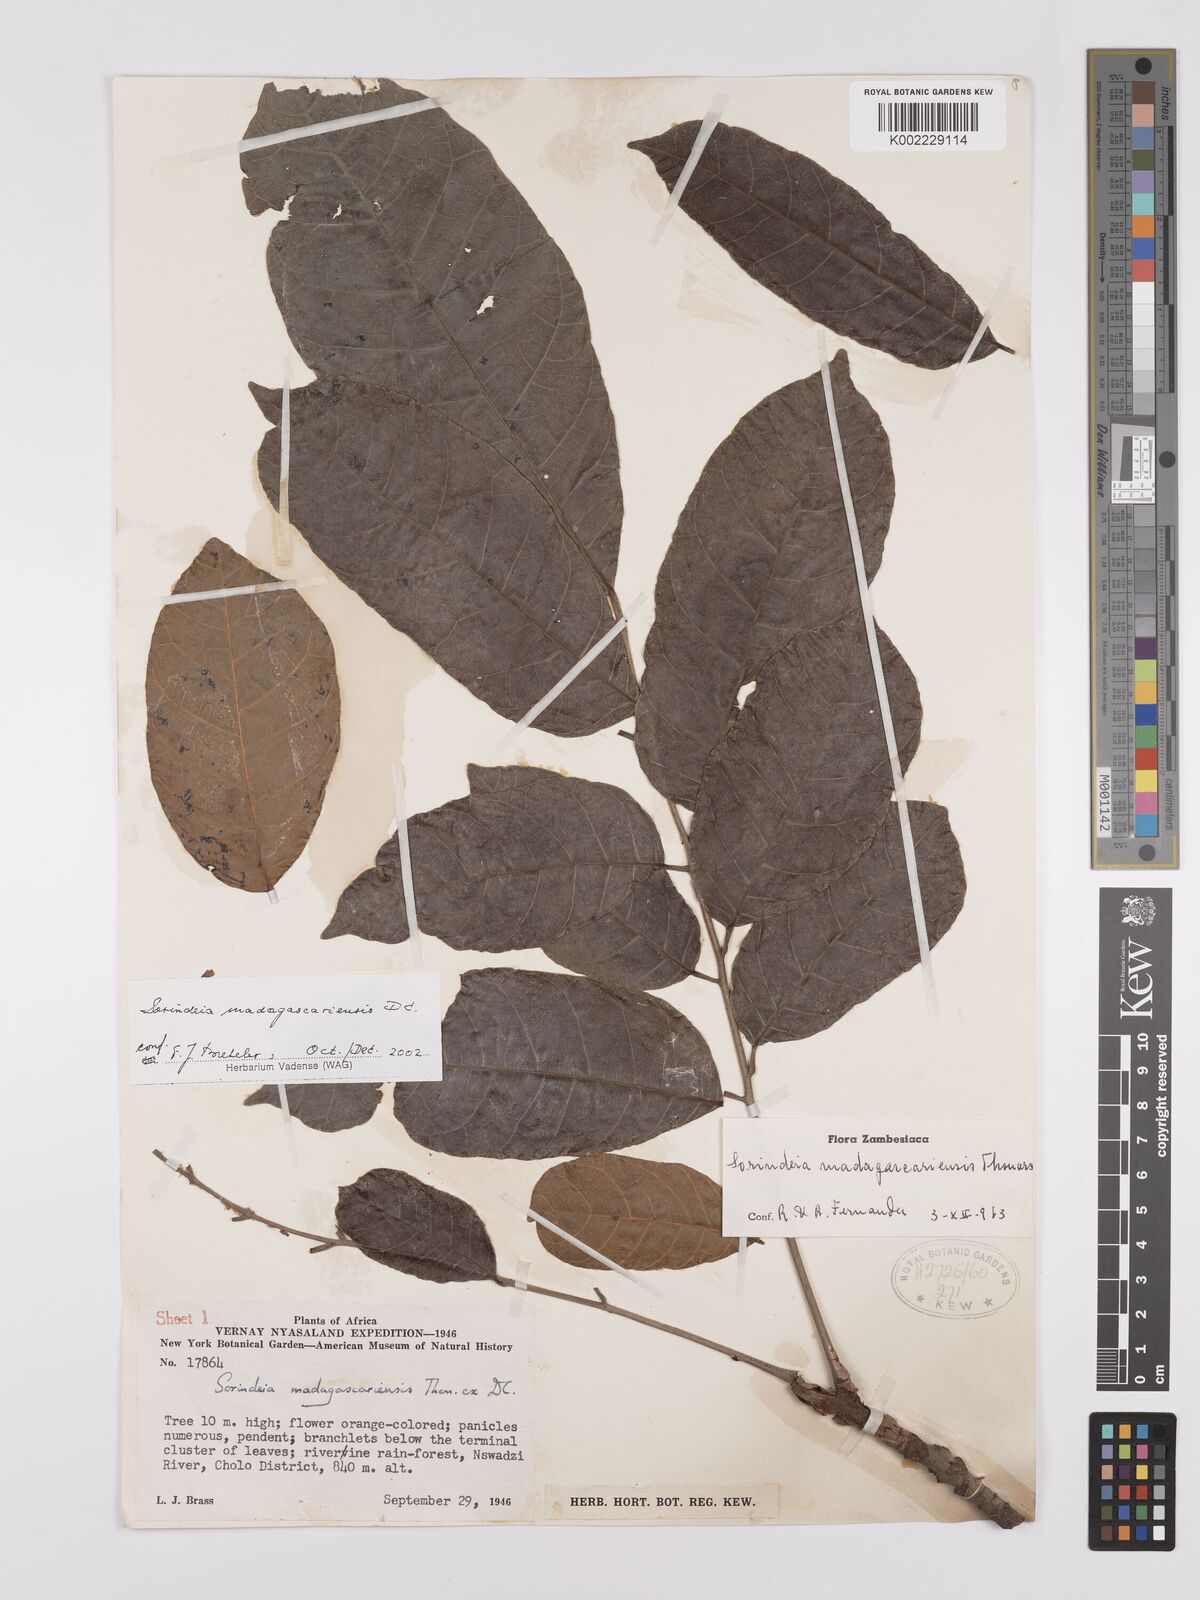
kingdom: Plantae
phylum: Tracheophyta
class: Magnoliopsida
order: Sapindales
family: Anacardiaceae
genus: Sorindeia
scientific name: Sorindeia madagascariensis
